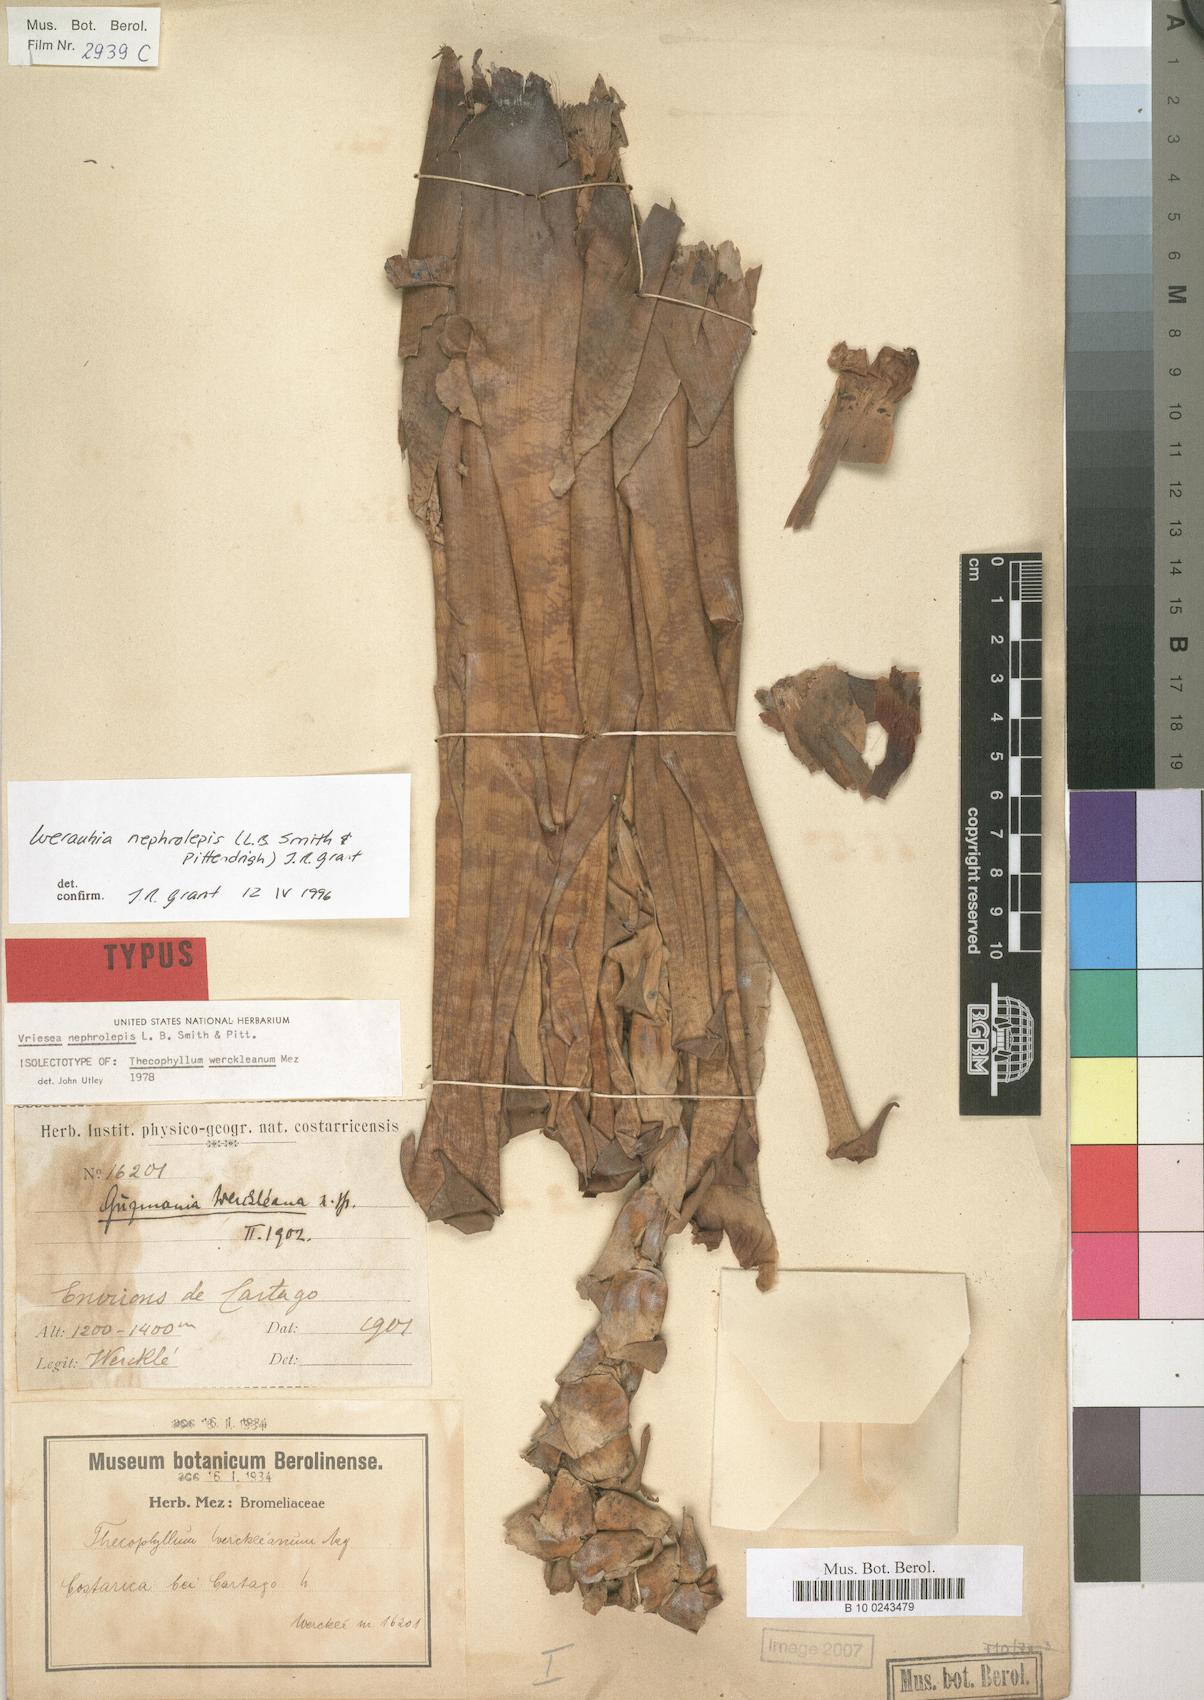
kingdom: Plantae
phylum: Tracheophyta
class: Liliopsida
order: Poales
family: Bromeliaceae
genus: Werauhia
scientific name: Werauhia montana
